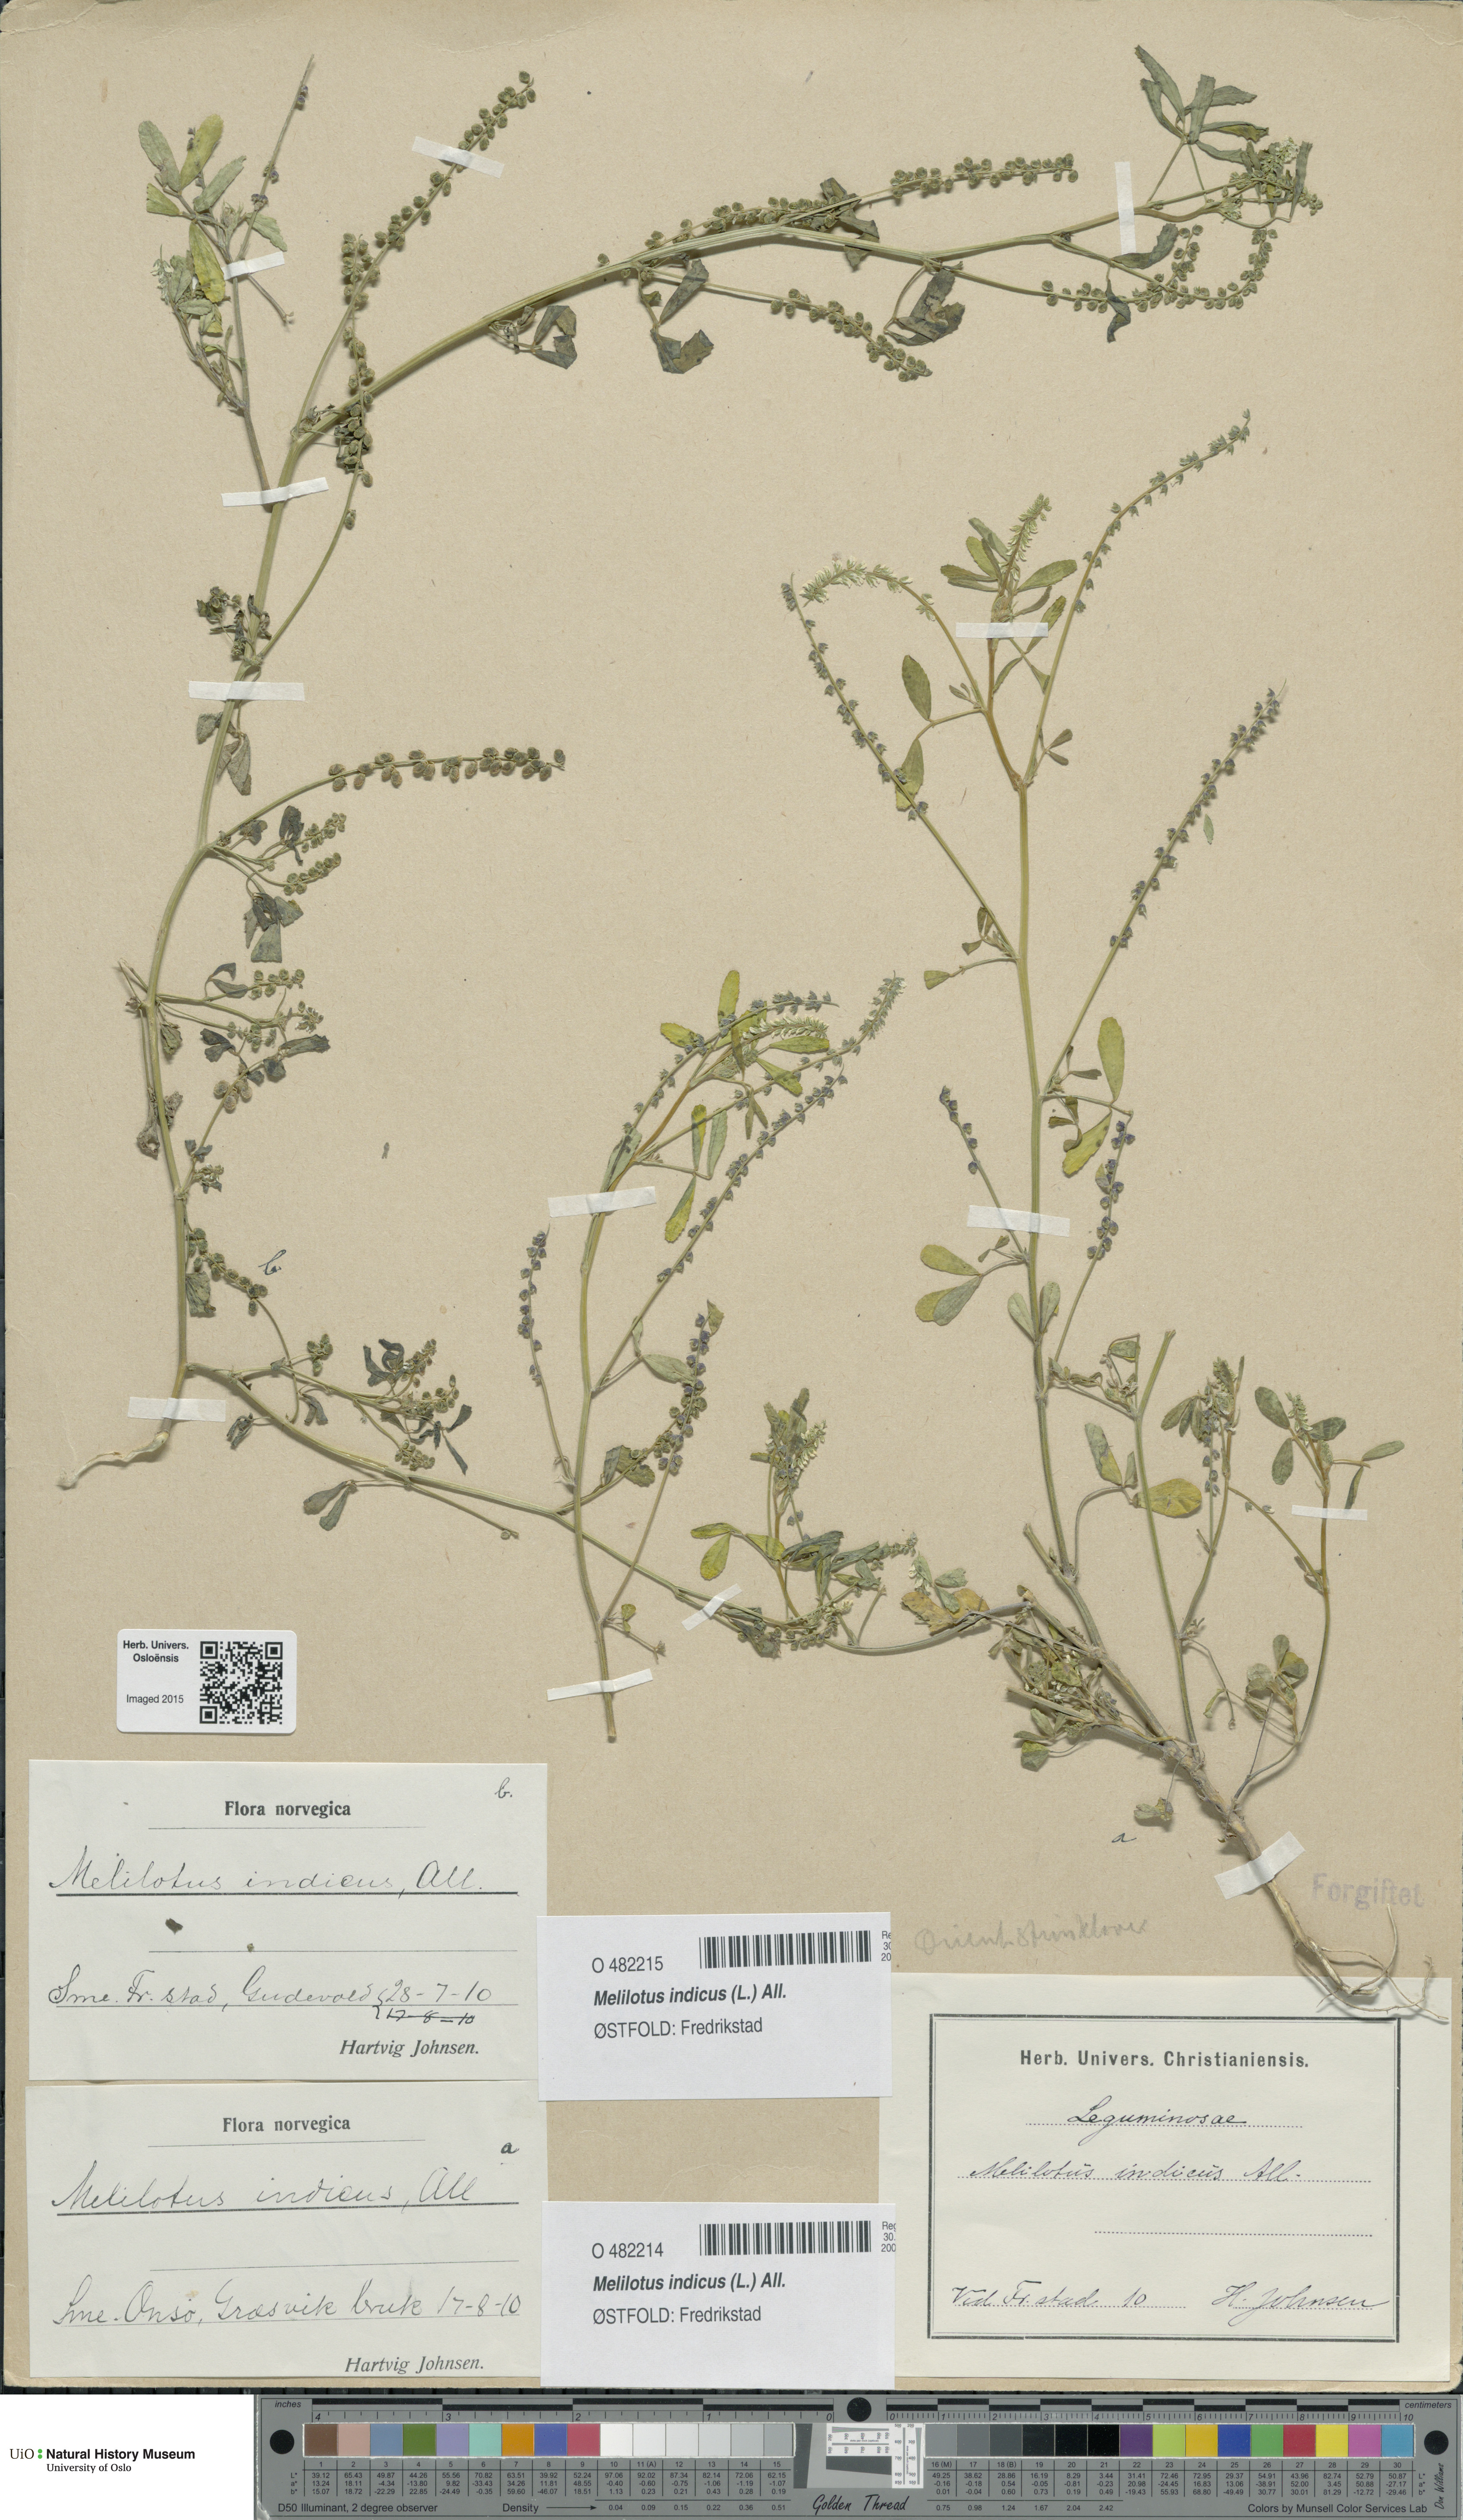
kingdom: Plantae
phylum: Tracheophyta
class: Magnoliopsida
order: Fabales
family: Fabaceae
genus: Melilotus
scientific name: Melilotus indicus
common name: Small melilot
